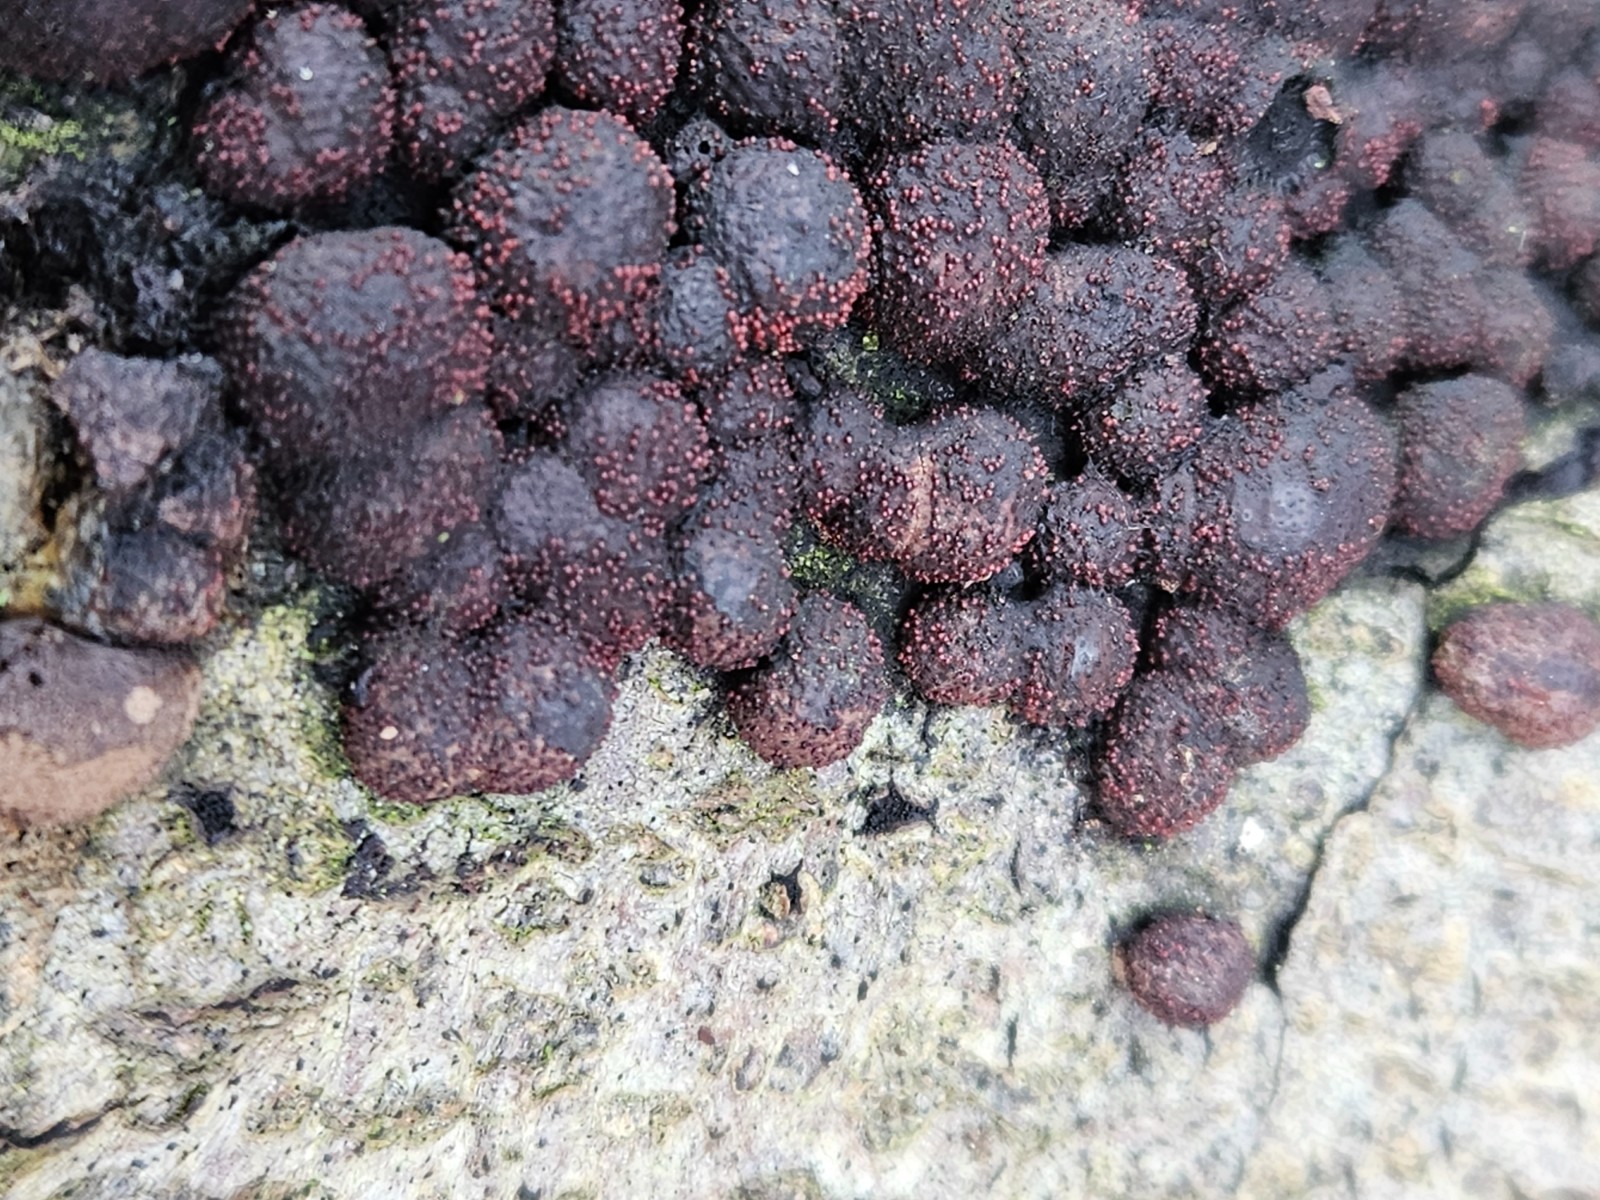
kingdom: Fungi
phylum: Ascomycota
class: Sordariomycetes
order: Hypocreales
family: Nectriaceae
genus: Cosmospora
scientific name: Cosmospora arxii
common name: kuljordbær-cinnobersvamp
